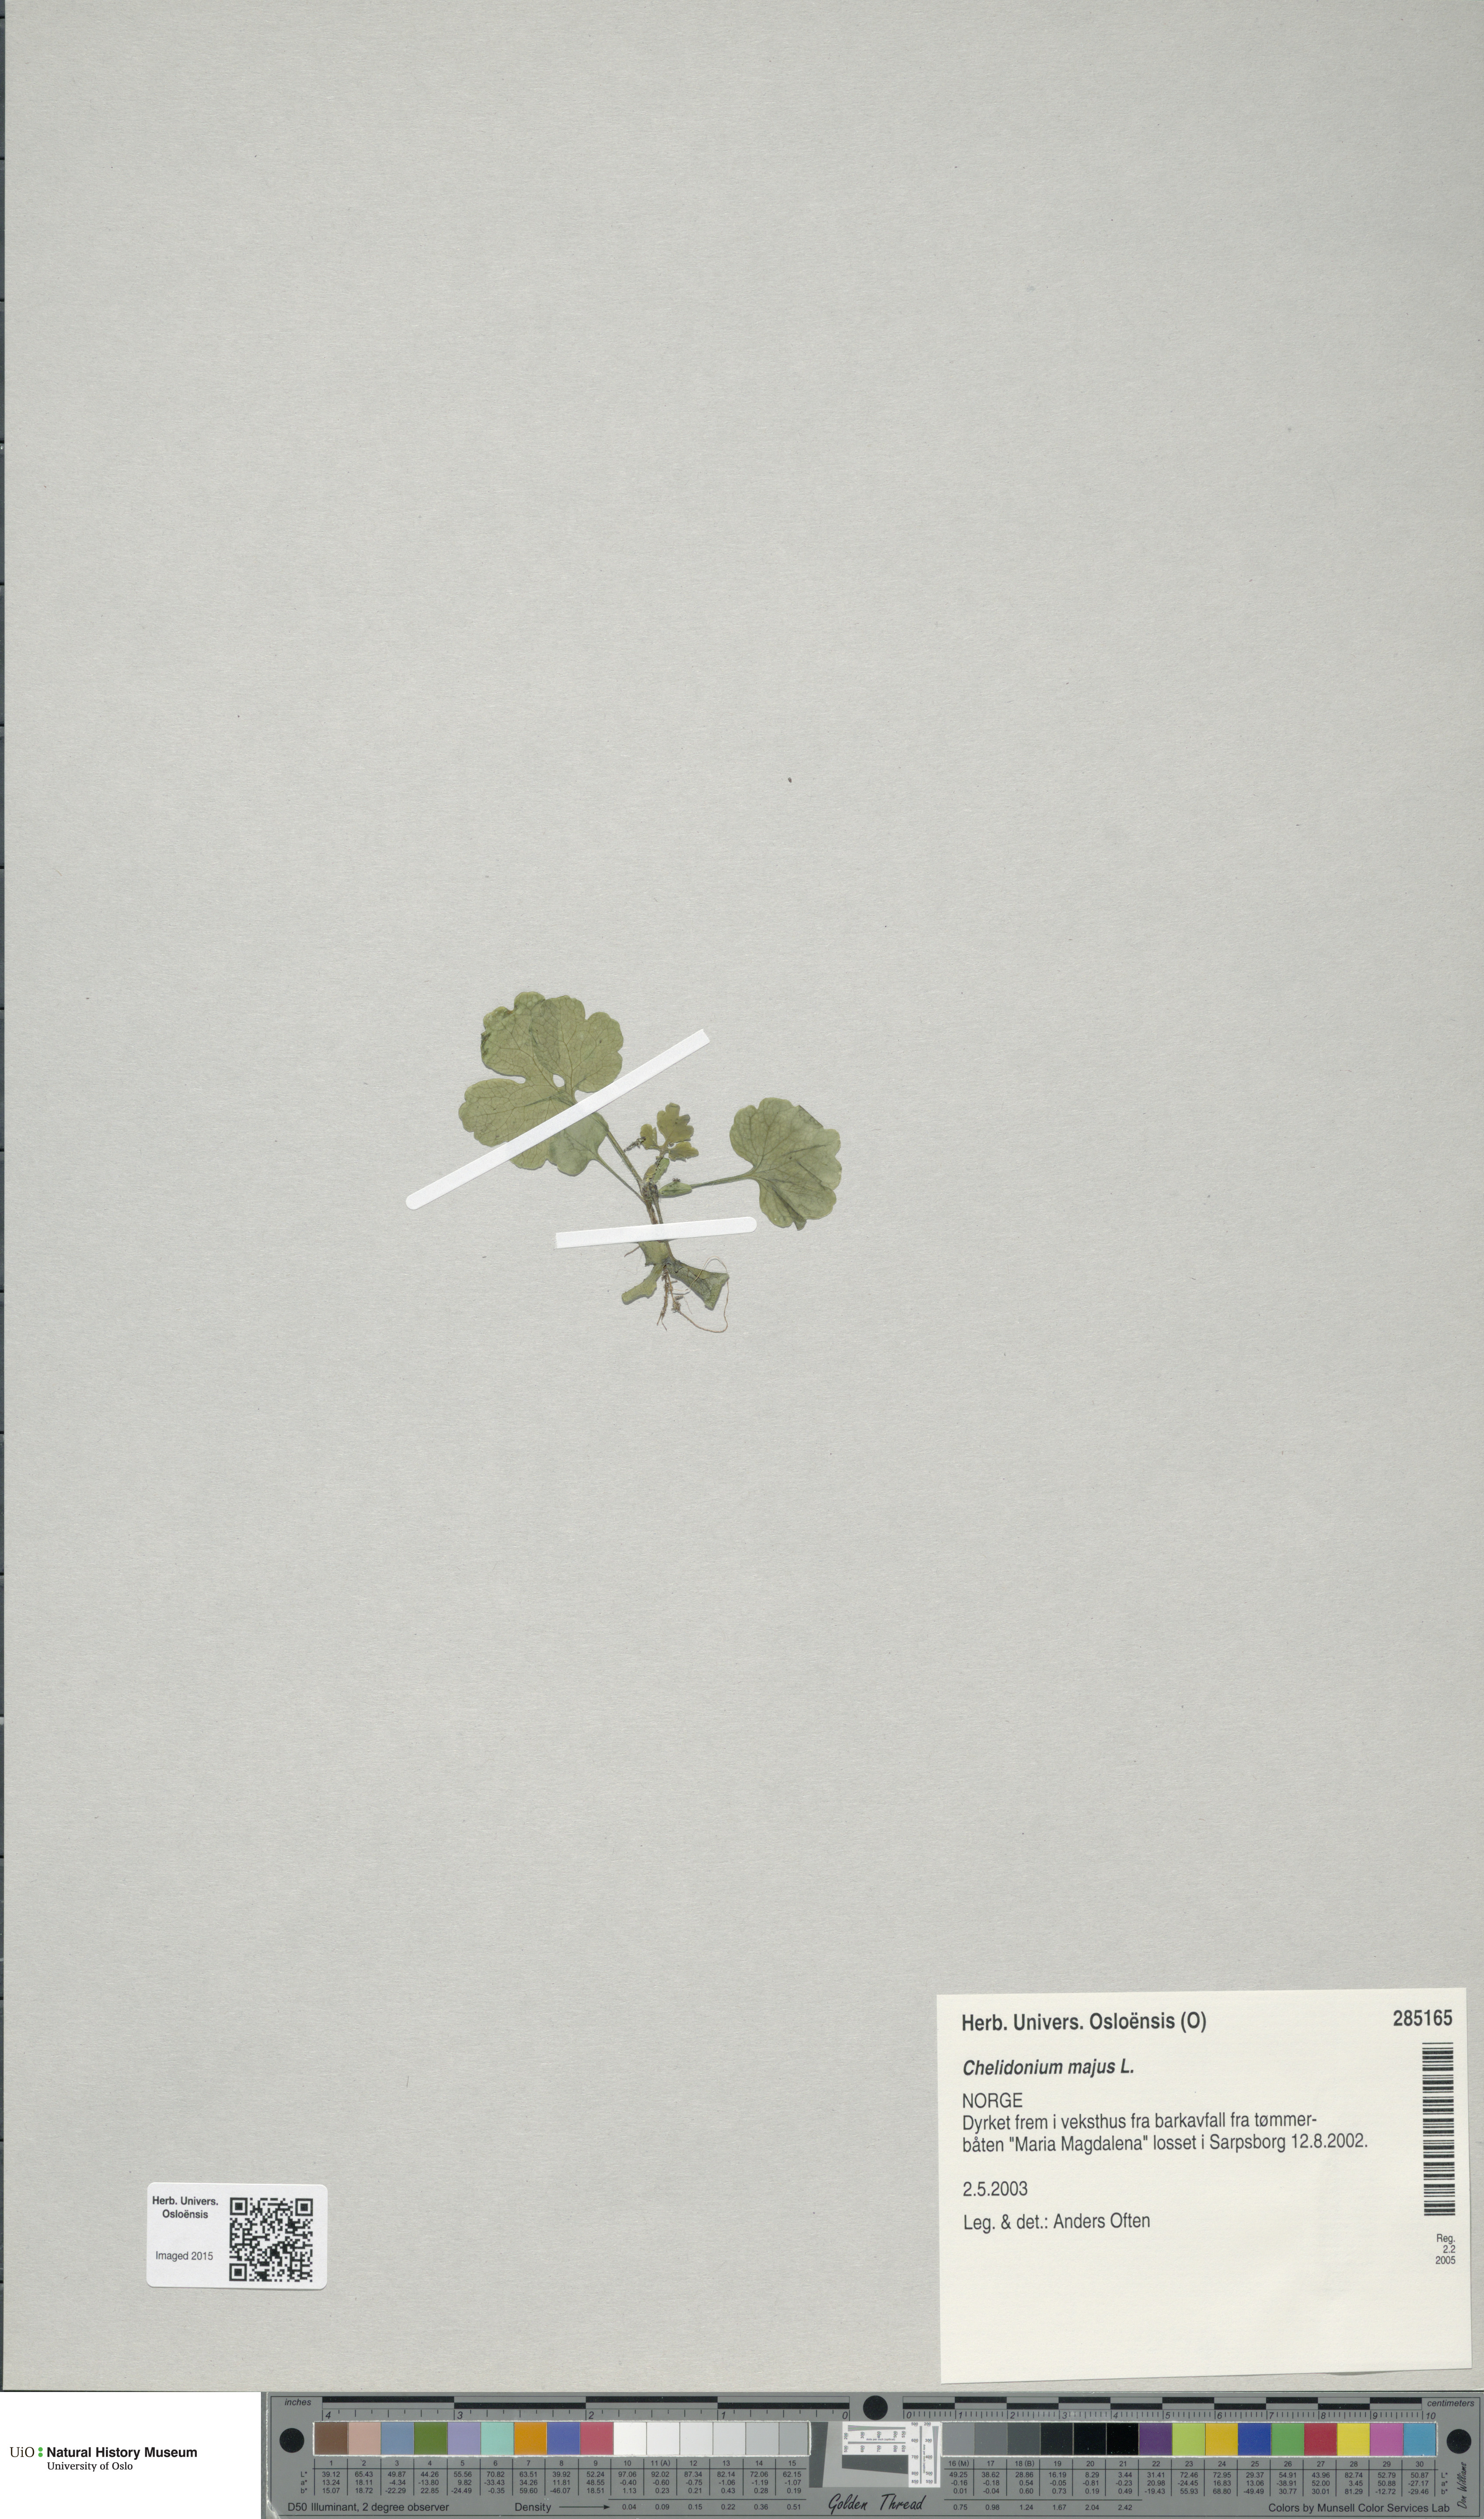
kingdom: Plantae
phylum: Tracheophyta
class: Magnoliopsida
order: Ranunculales
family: Papaveraceae
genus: Chelidonium
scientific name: Chelidonium majus
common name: Greater celandine
